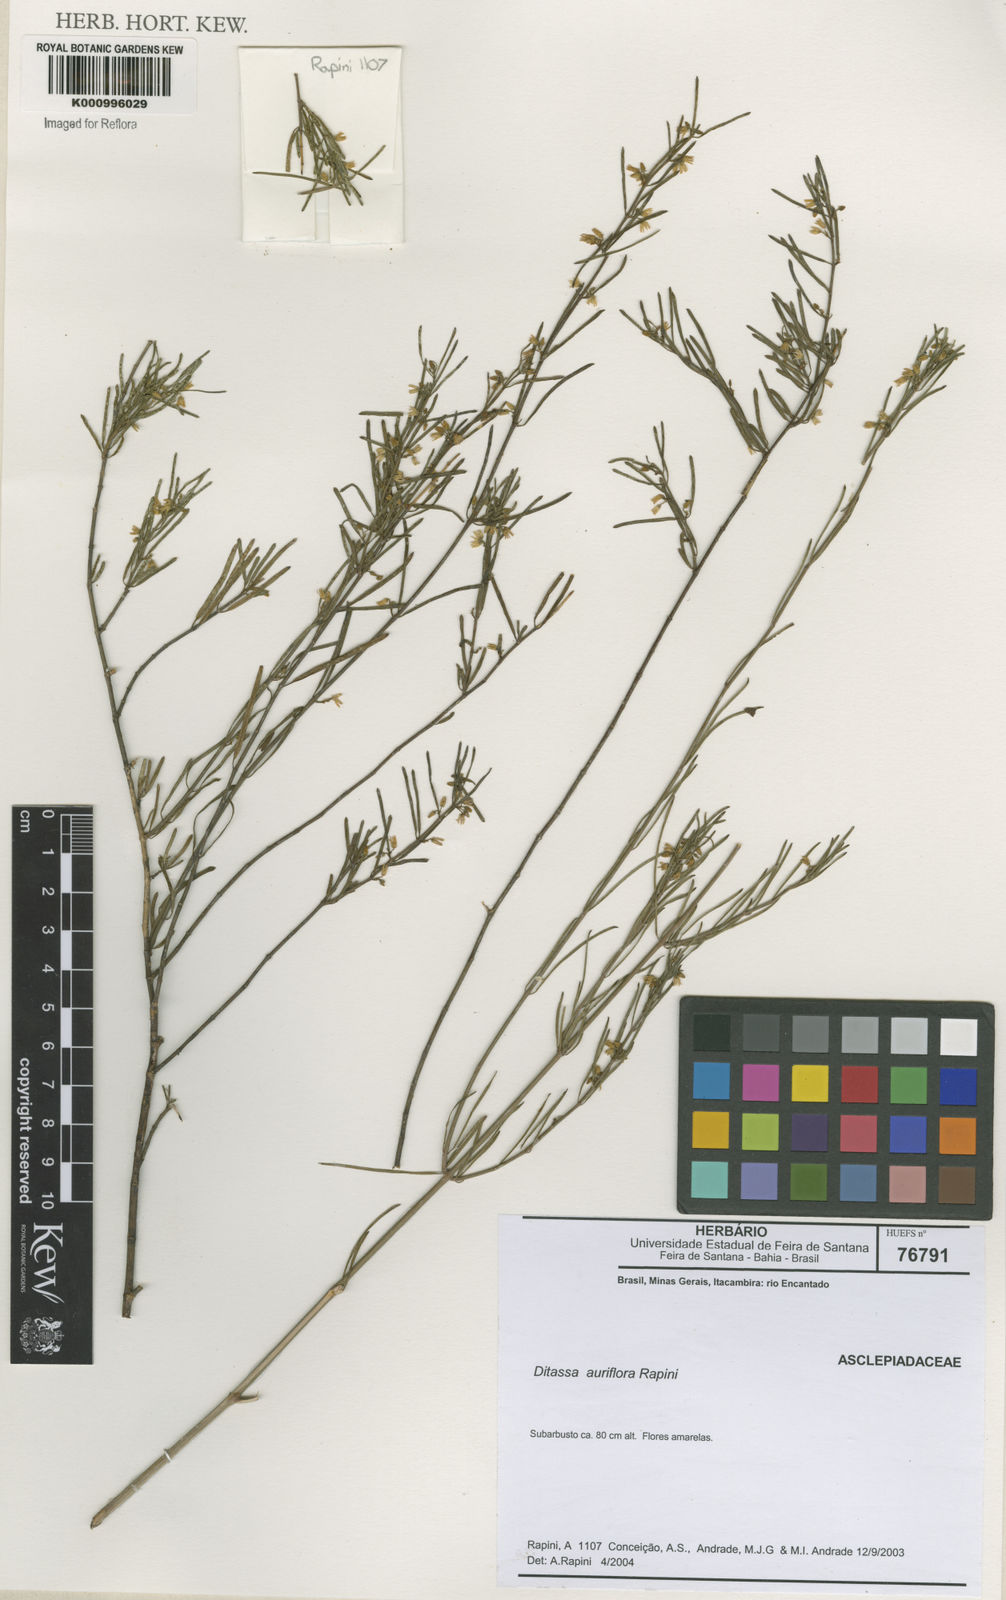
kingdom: Plantae
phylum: Tracheophyta
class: Magnoliopsida
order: Gentianales
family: Apocynaceae
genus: Ditassa
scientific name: Ditassa auriflora
